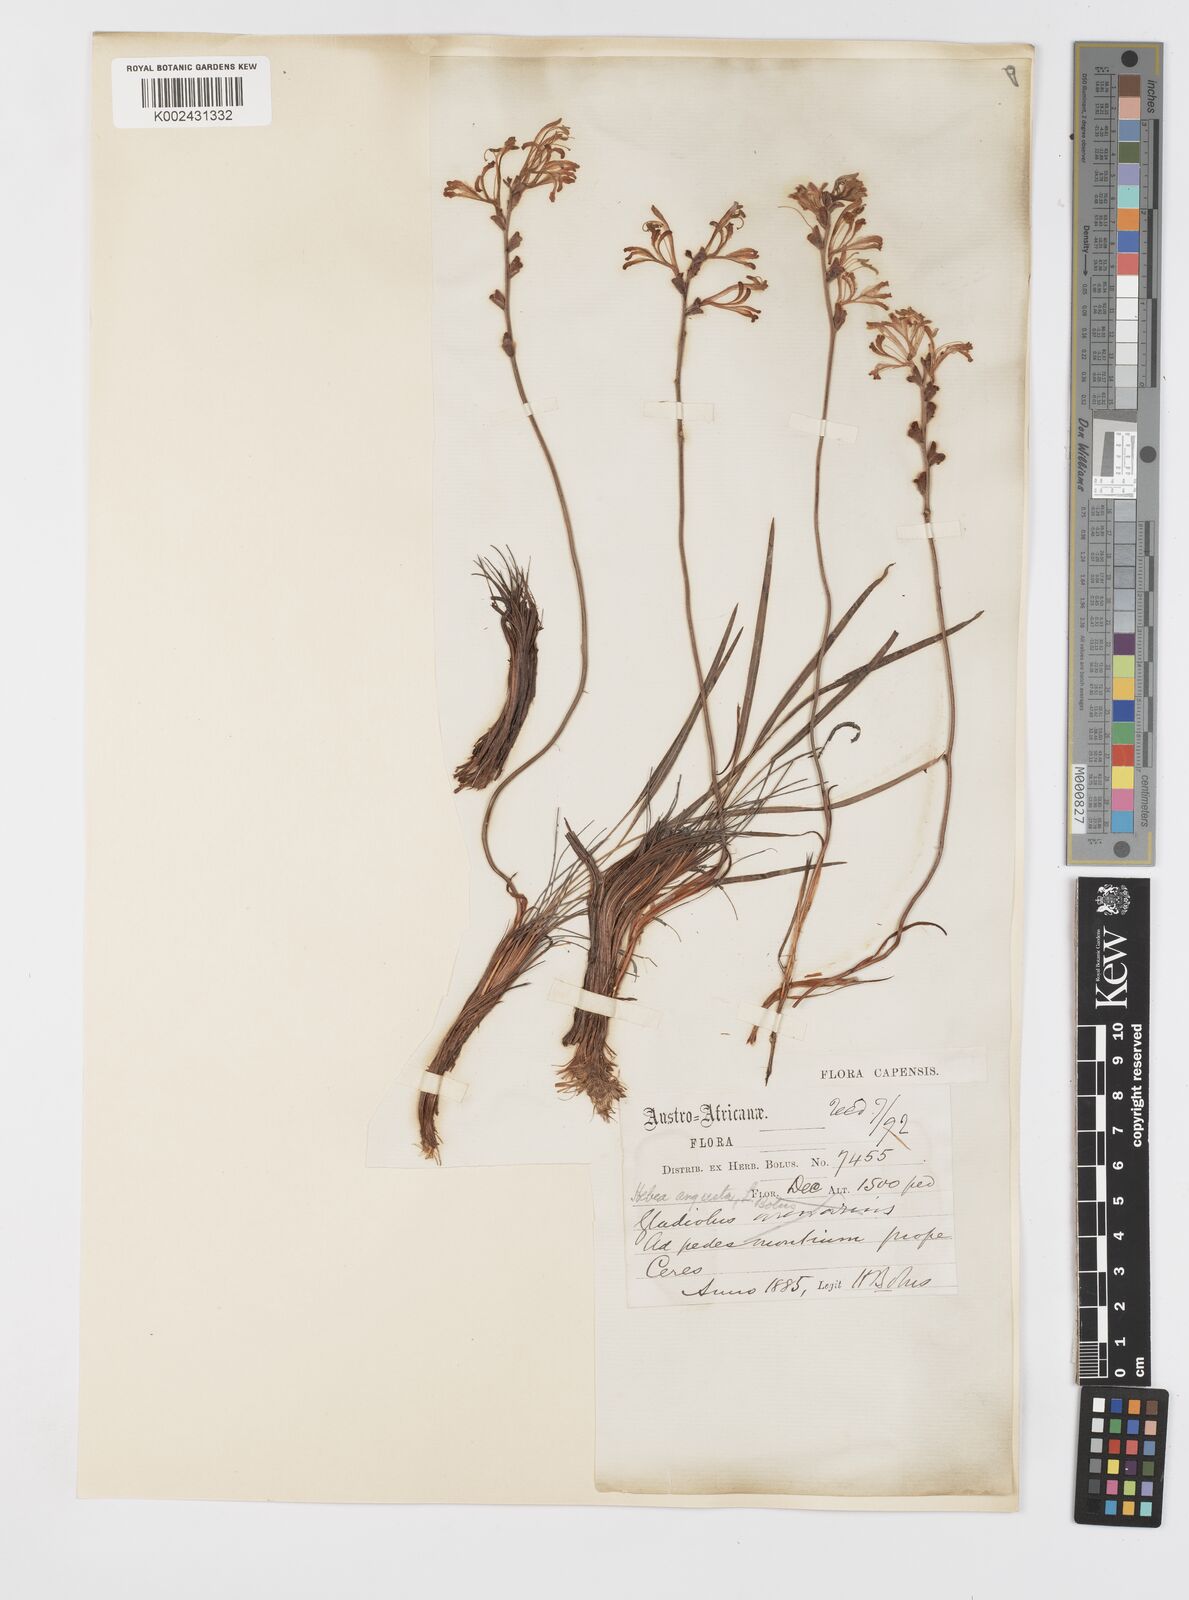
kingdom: Plantae
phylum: Tracheophyta
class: Liliopsida
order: Asparagales
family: Iridaceae
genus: Tritoniopsis
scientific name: Tritoniopsis parviflora
